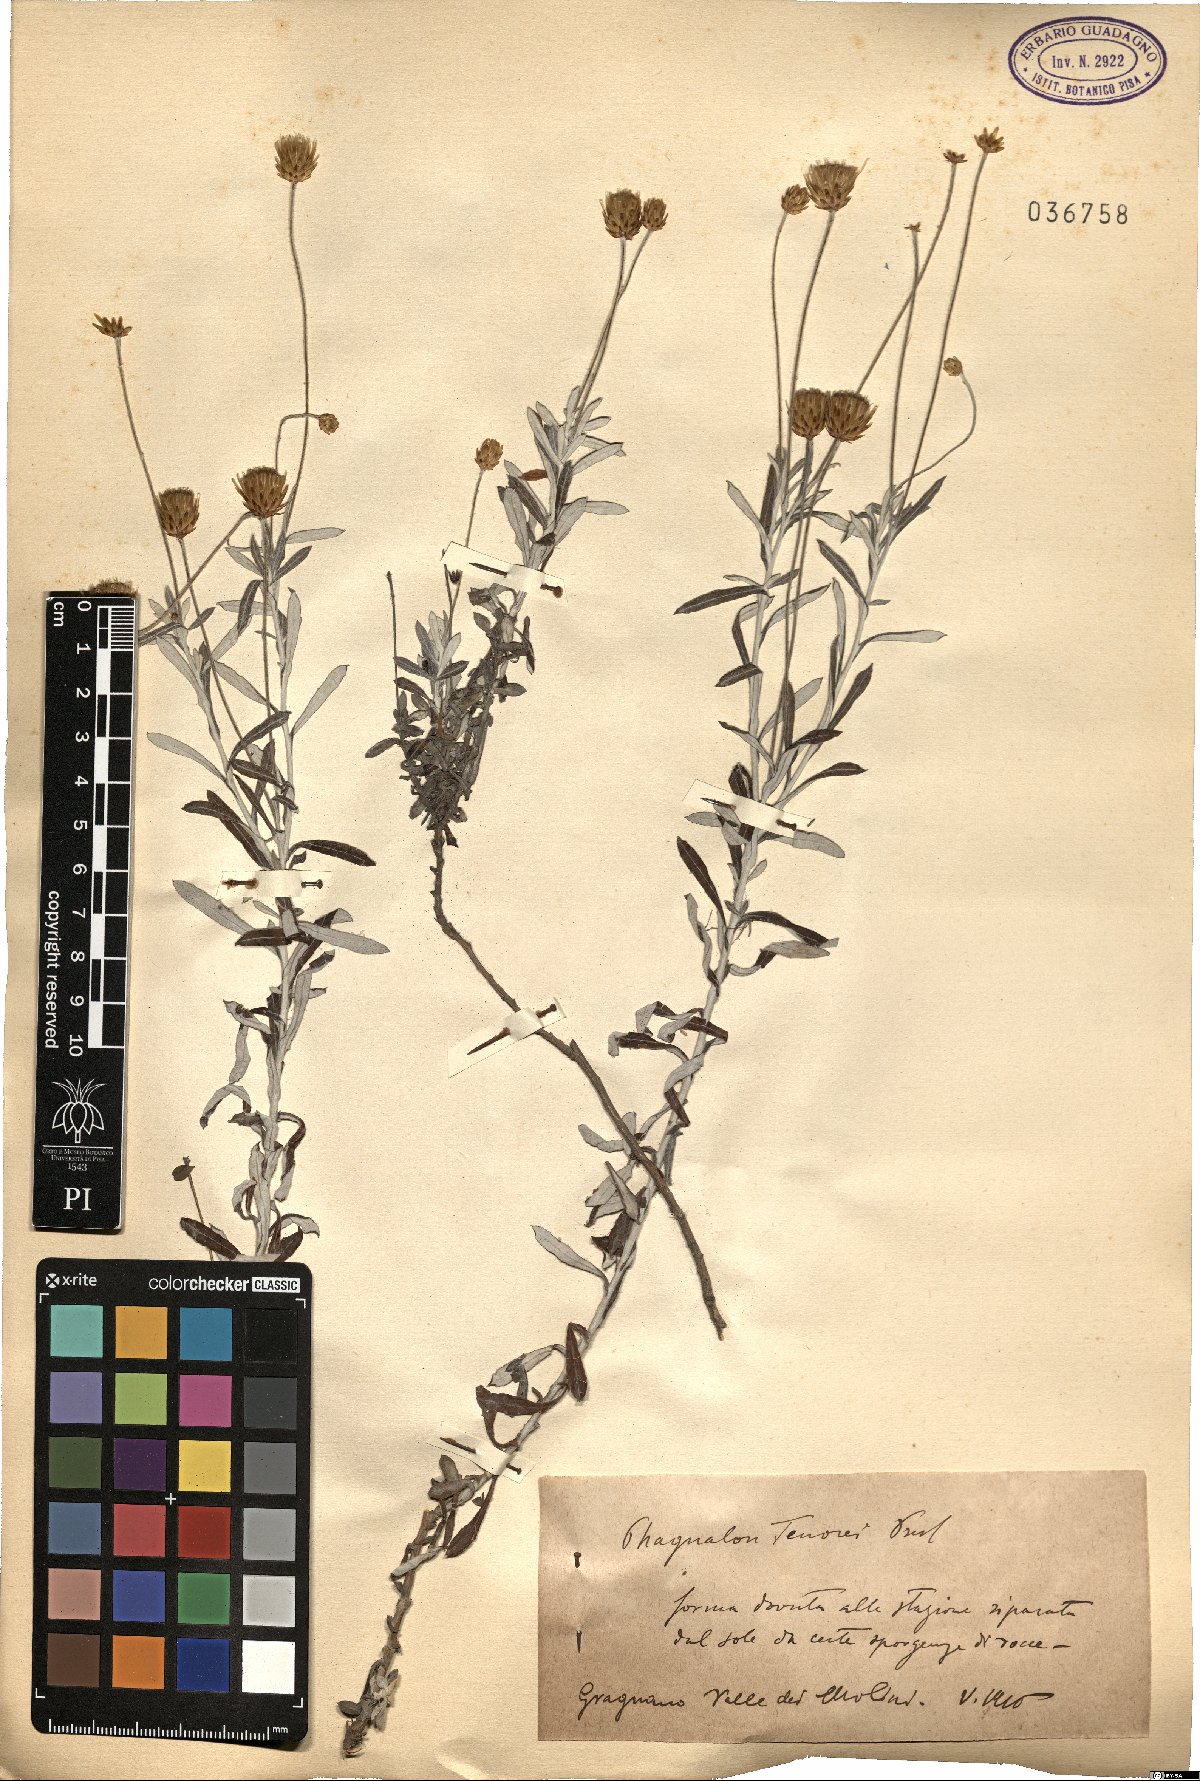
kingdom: Plantae
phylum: Tracheophyta
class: Magnoliopsida
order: Asterales
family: Asteraceae
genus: Phagnalon
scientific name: Phagnalon graecum
